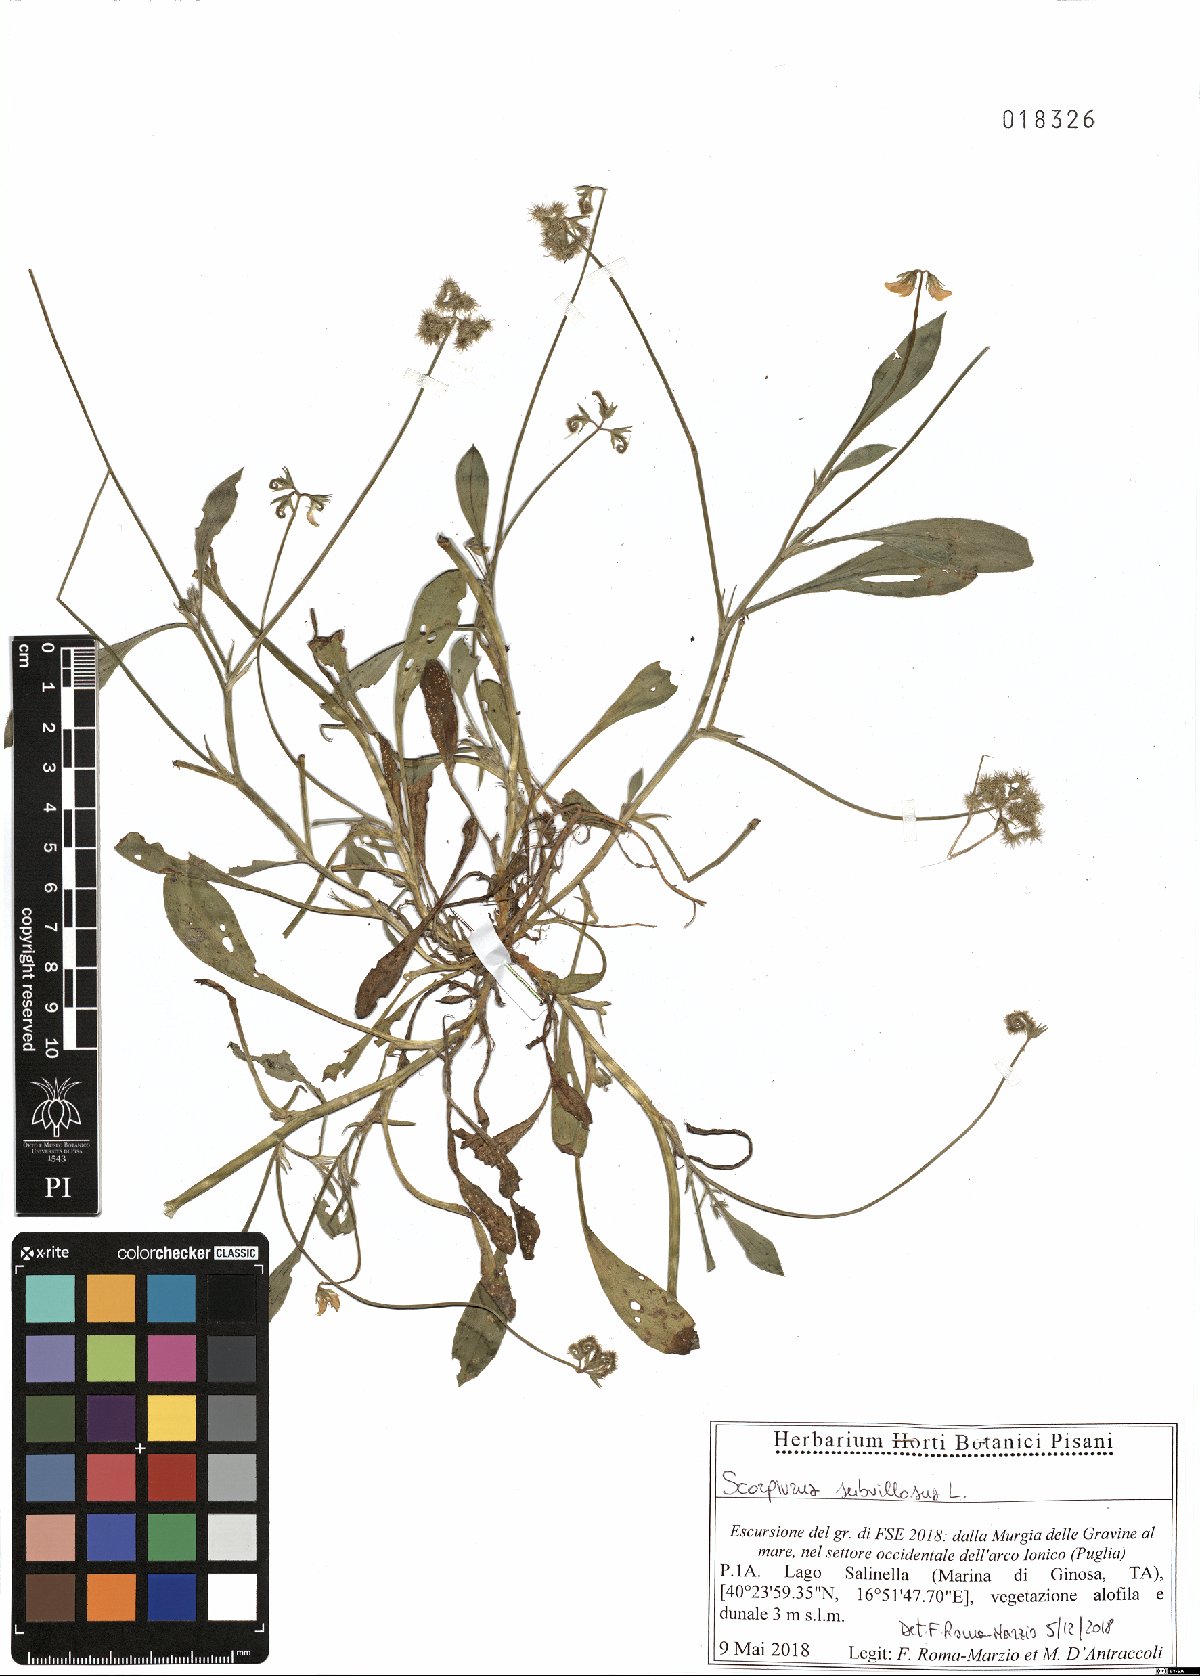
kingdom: Plantae
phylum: Tracheophyta
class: Magnoliopsida
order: Fabales
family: Fabaceae
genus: Scorpiurus
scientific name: Scorpiurus muricatus
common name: Caterpillar-plant
